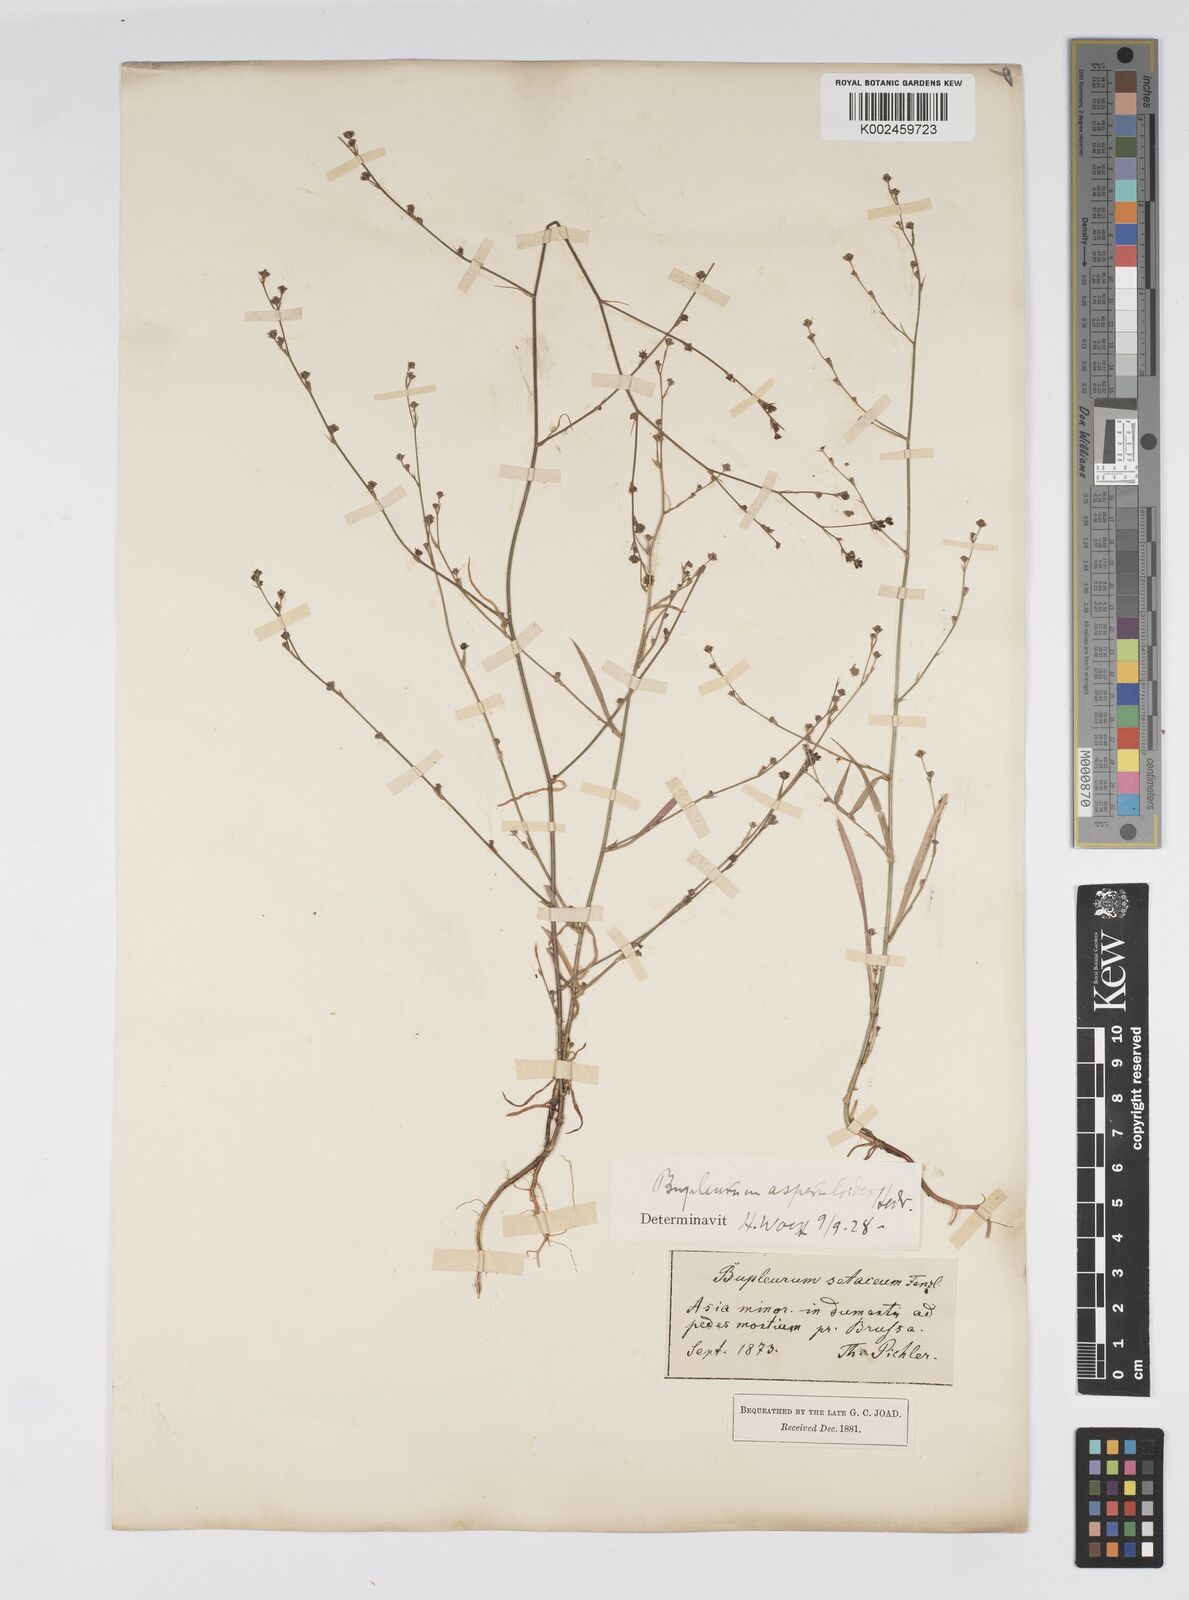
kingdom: Plantae
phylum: Tracheophyta
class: Magnoliopsida
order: Apiales
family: Apiaceae
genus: Bupleurum
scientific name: Bupleurum asperuloides
